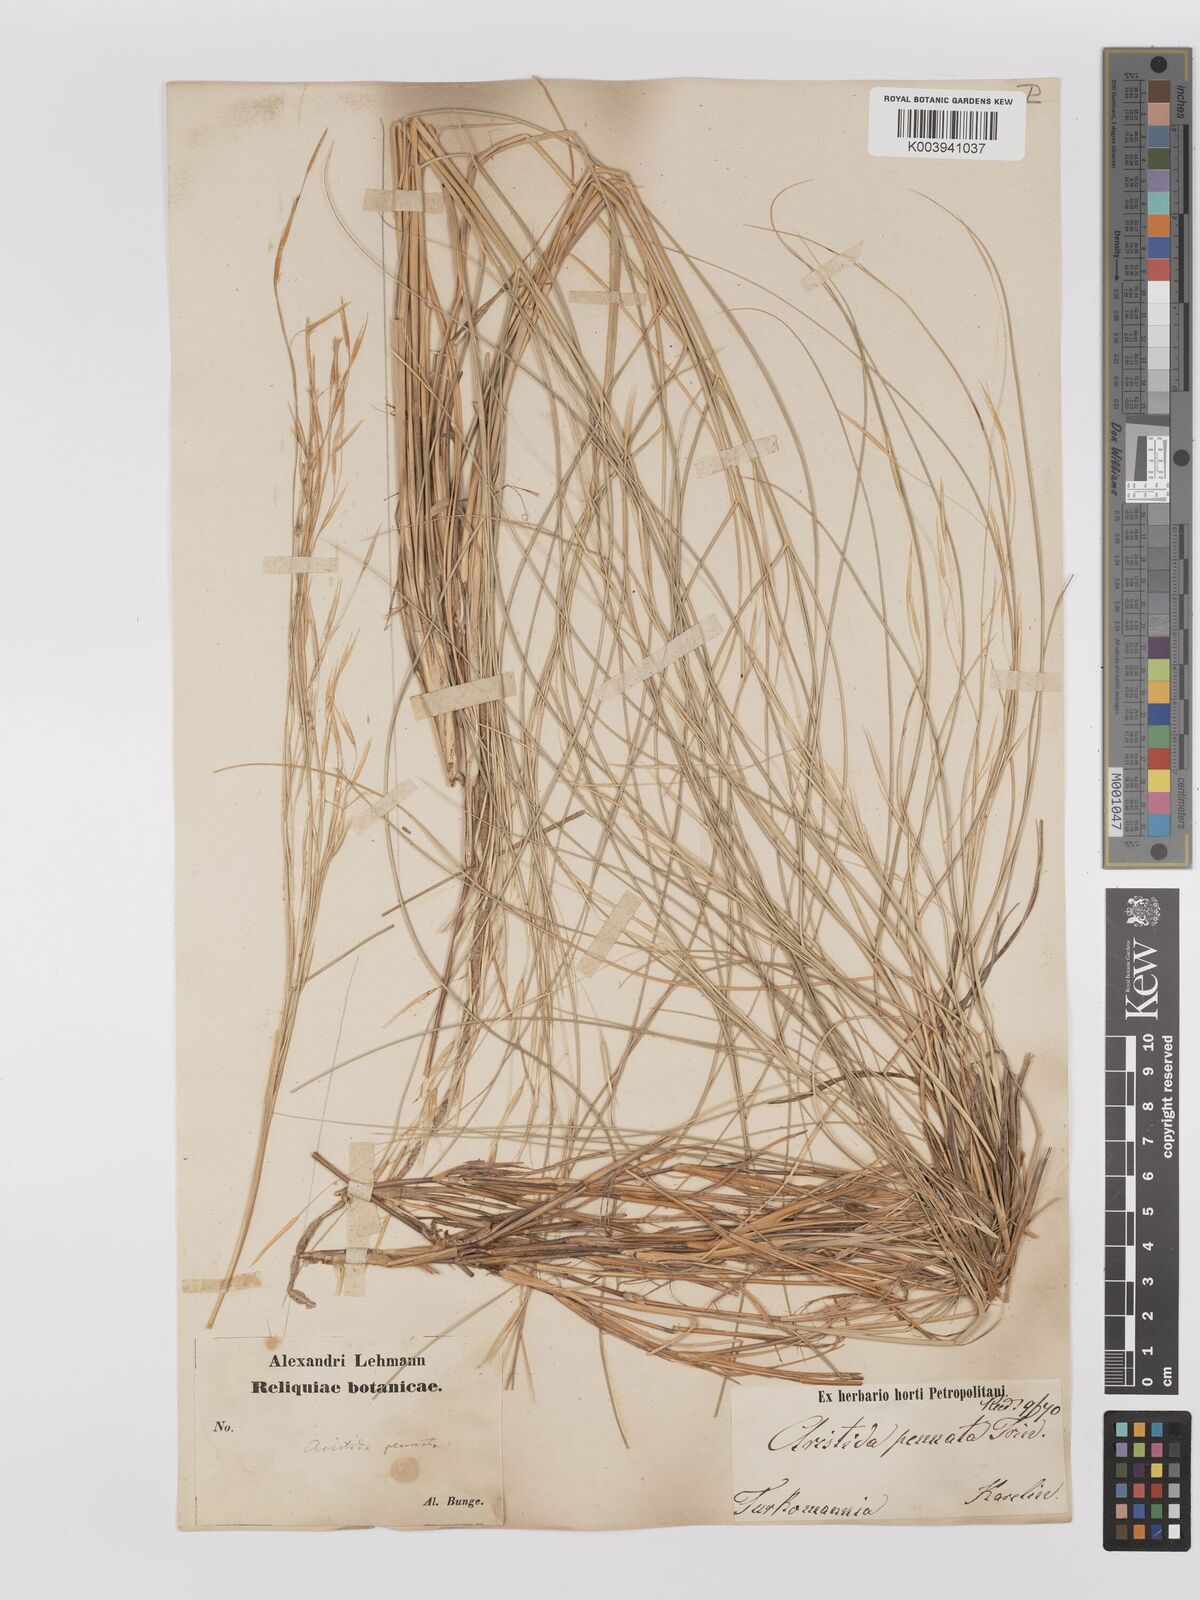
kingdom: Plantae
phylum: Tracheophyta
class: Liliopsida
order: Poales
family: Poaceae
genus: Stipagrostis
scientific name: Stipagrostis pungens
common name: Three-awn grass
